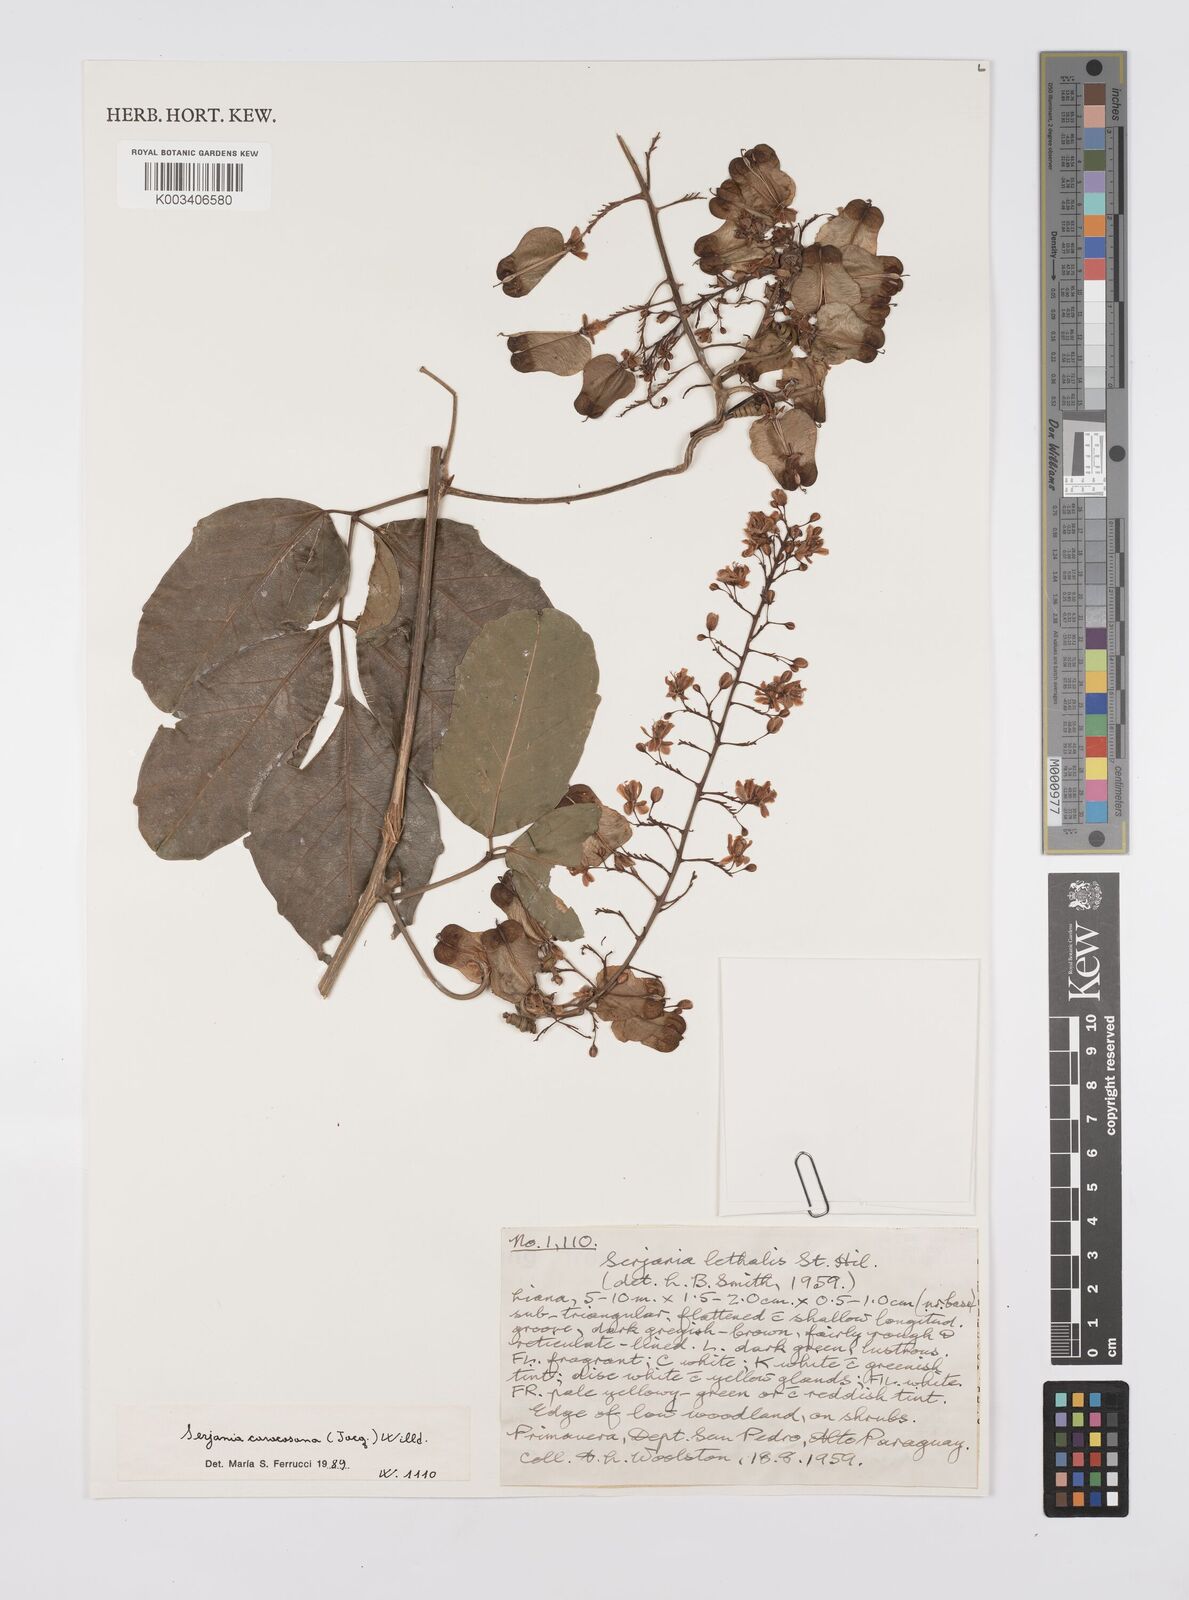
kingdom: Plantae
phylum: Tracheophyta
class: Magnoliopsida
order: Sapindales
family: Sapindaceae
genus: Serjania
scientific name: Serjania caracasana
